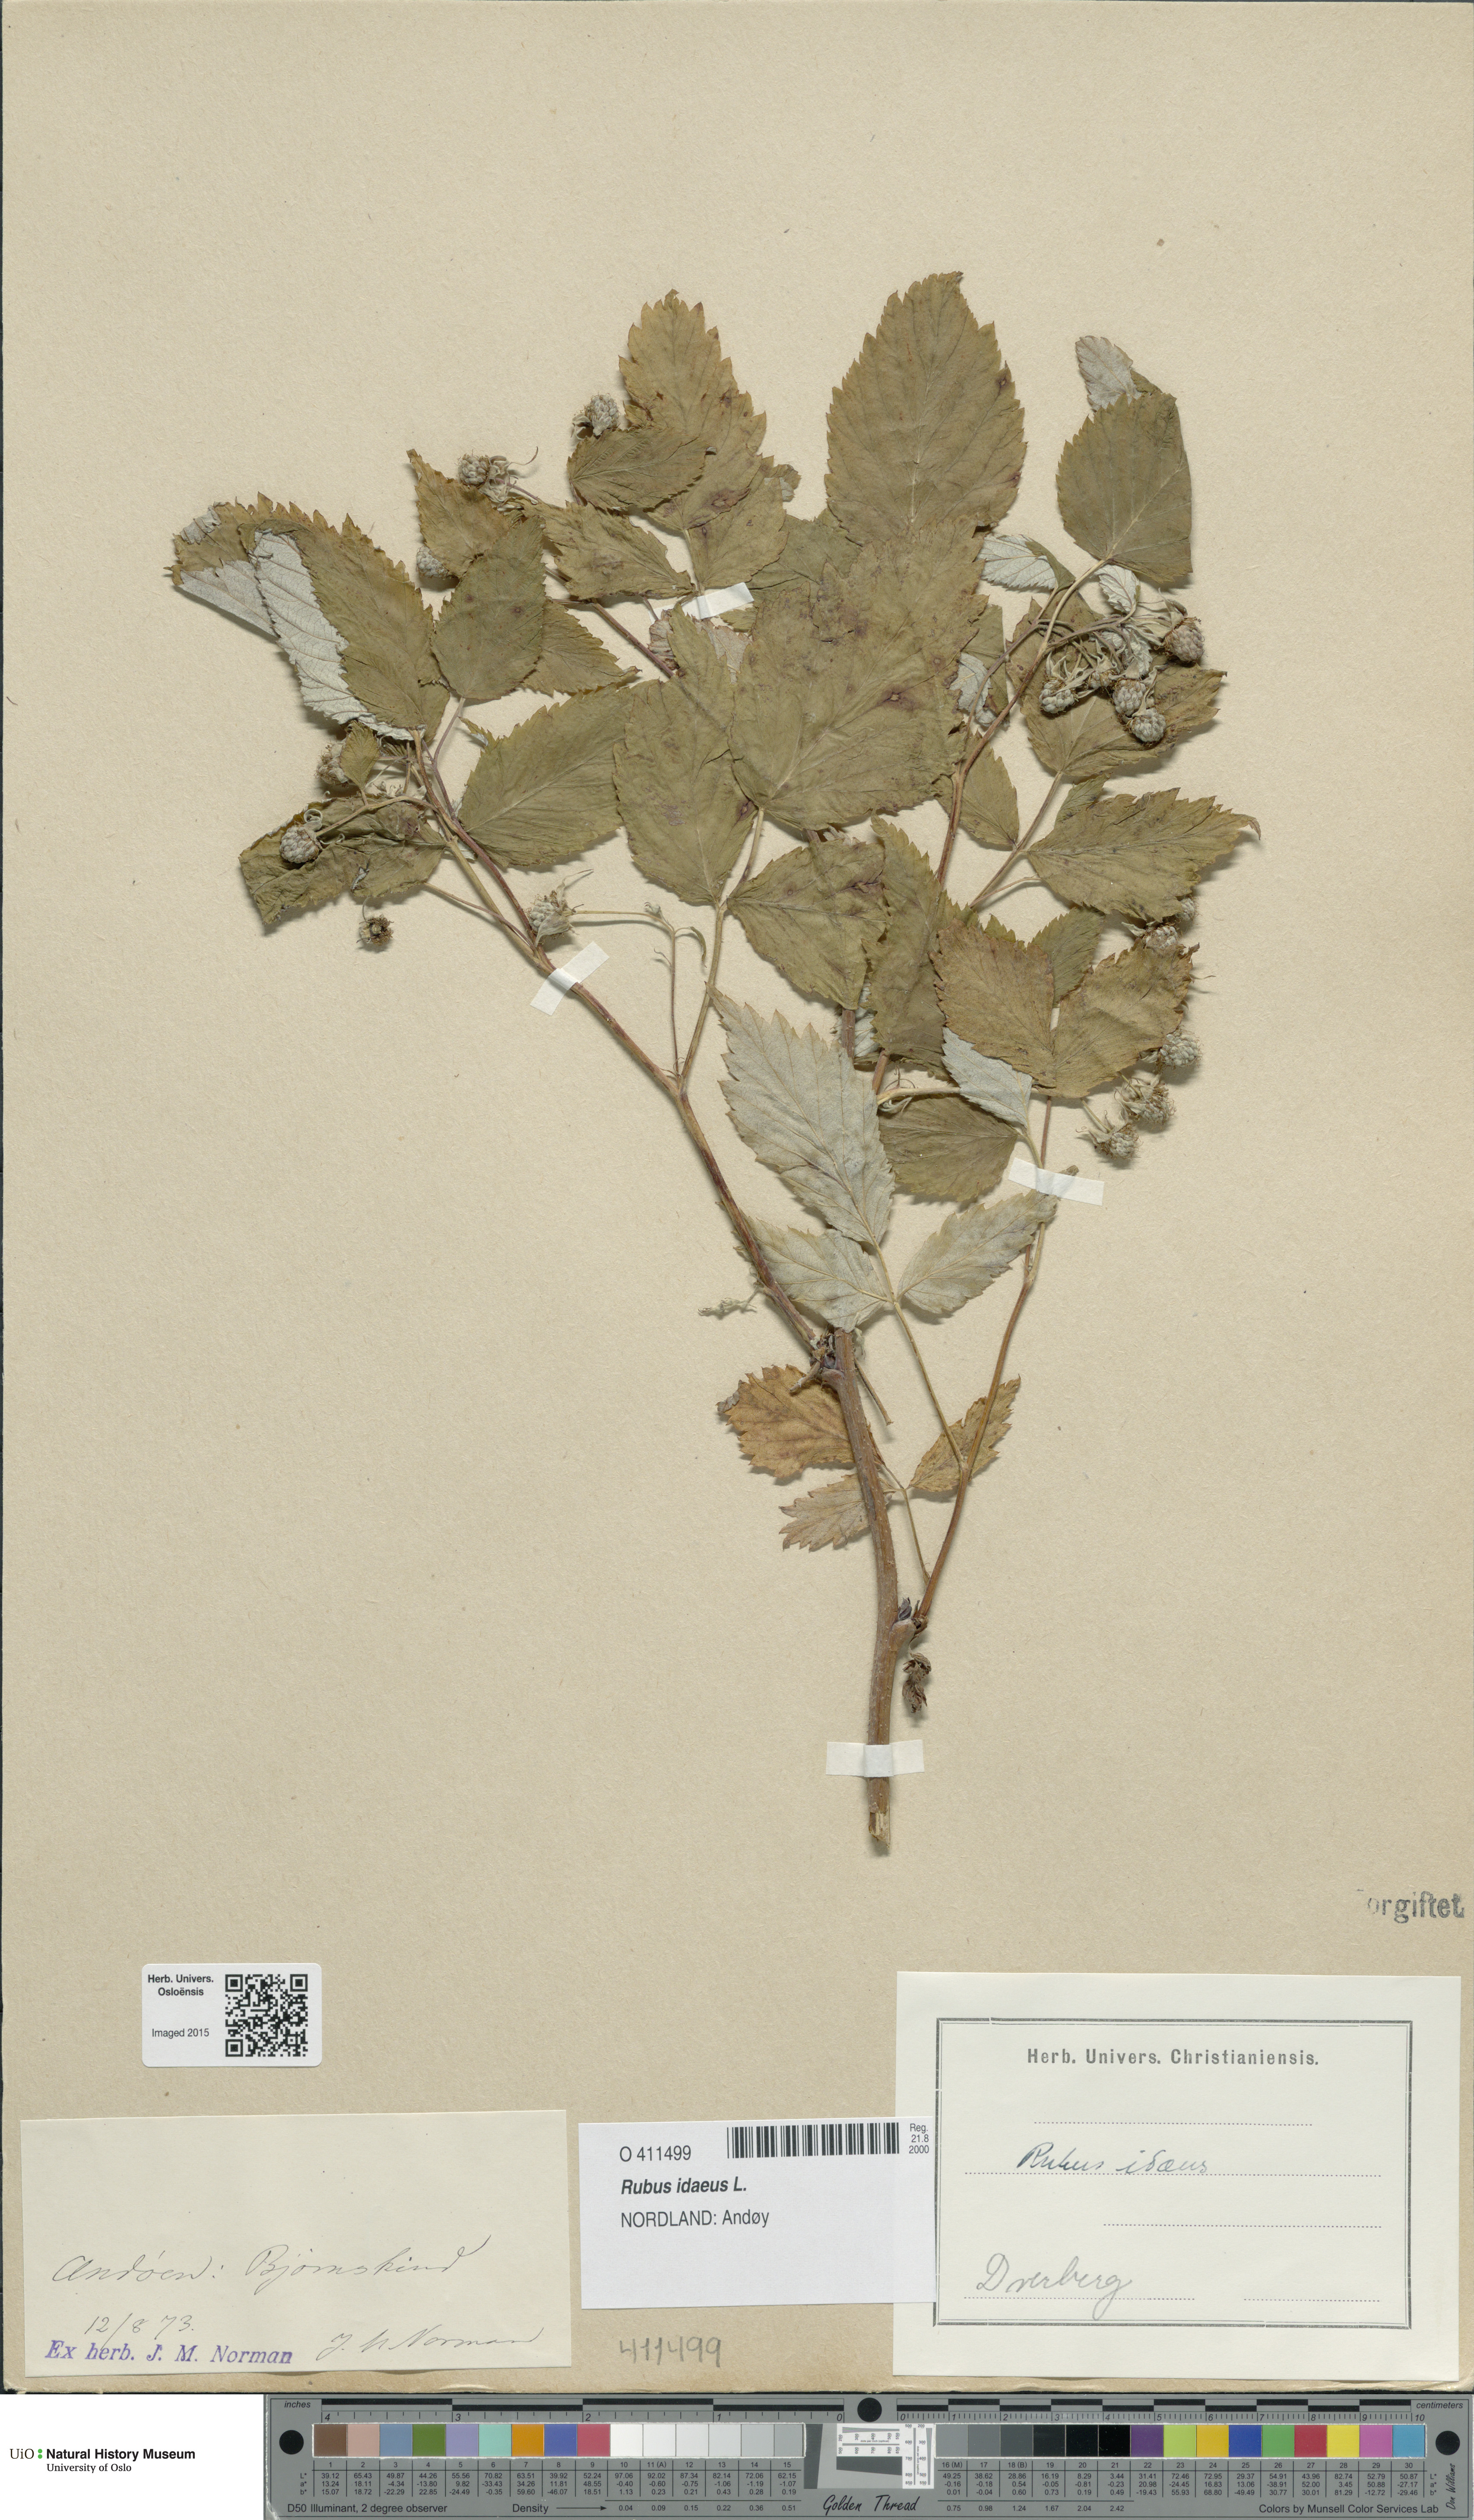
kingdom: Plantae
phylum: Tracheophyta
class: Magnoliopsida
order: Rosales
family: Rosaceae
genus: Rubus
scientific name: Rubus idaeus
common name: Raspberry
